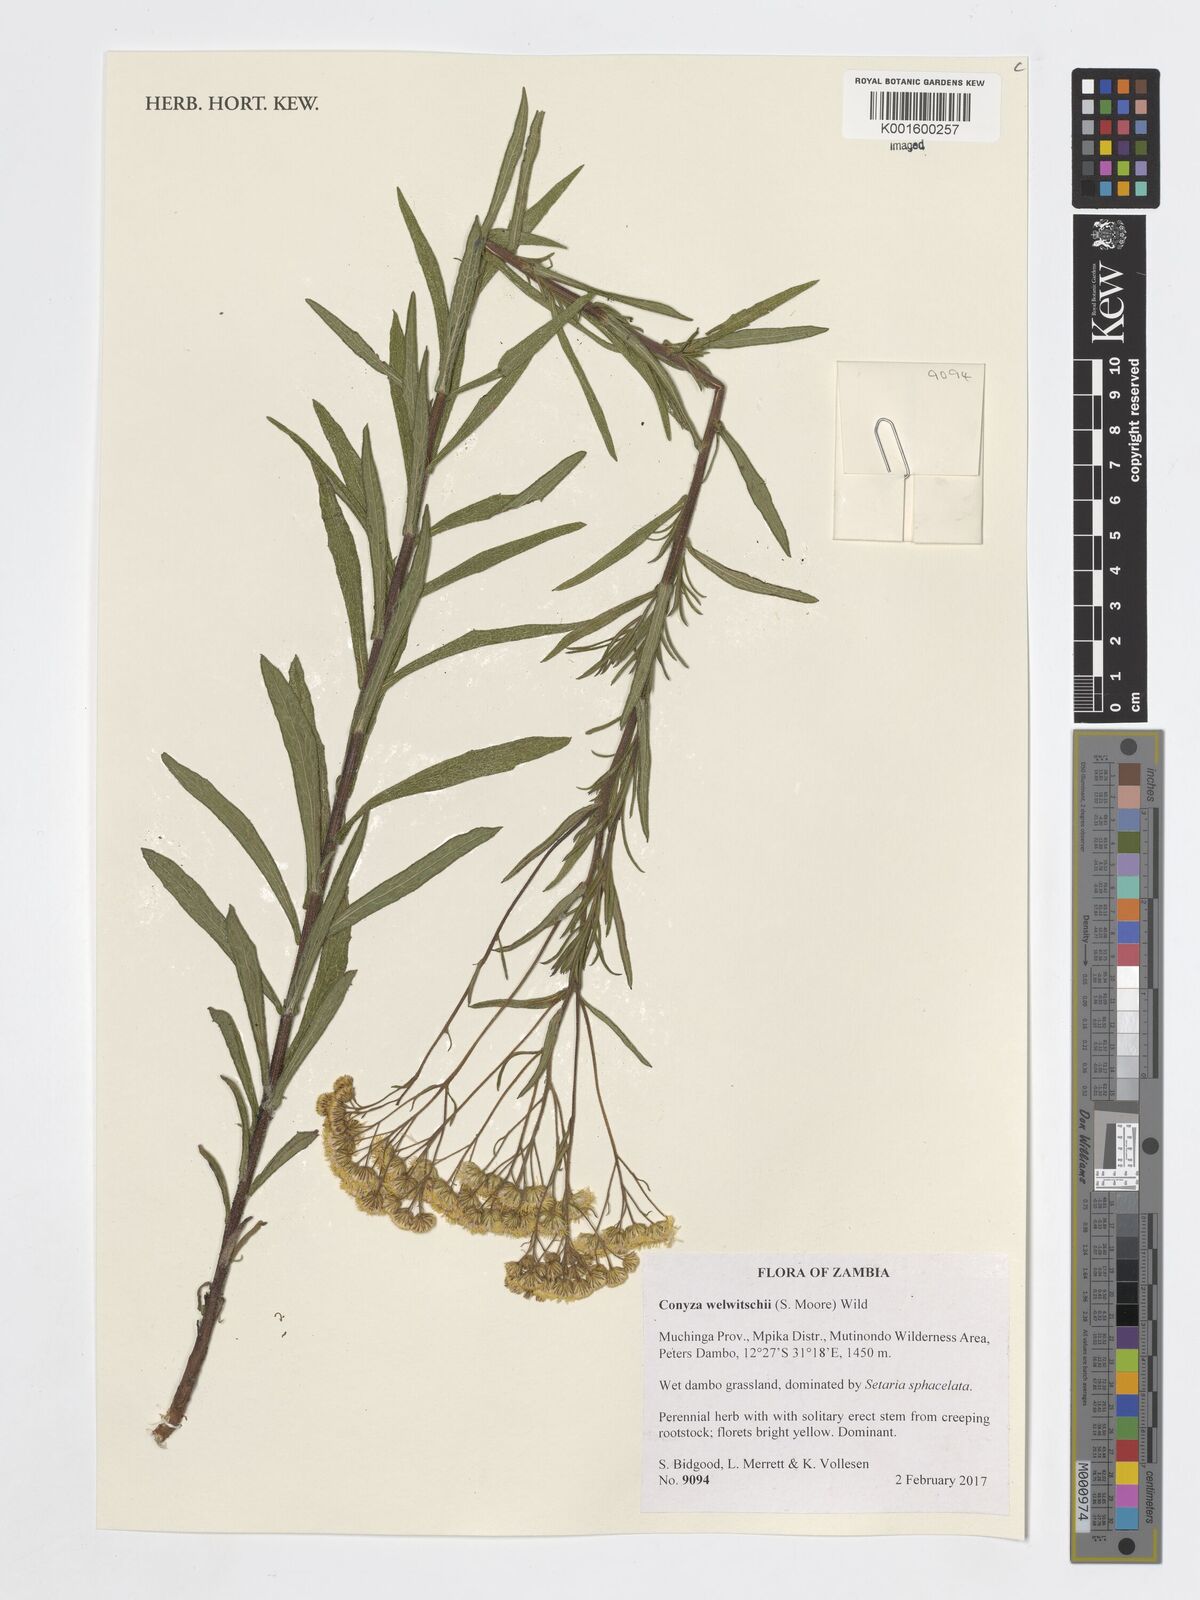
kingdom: Plantae
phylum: Tracheophyta
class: Magnoliopsida
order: Asterales
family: Asteraceae
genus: Nidorella
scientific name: Nidorella welwitschii
